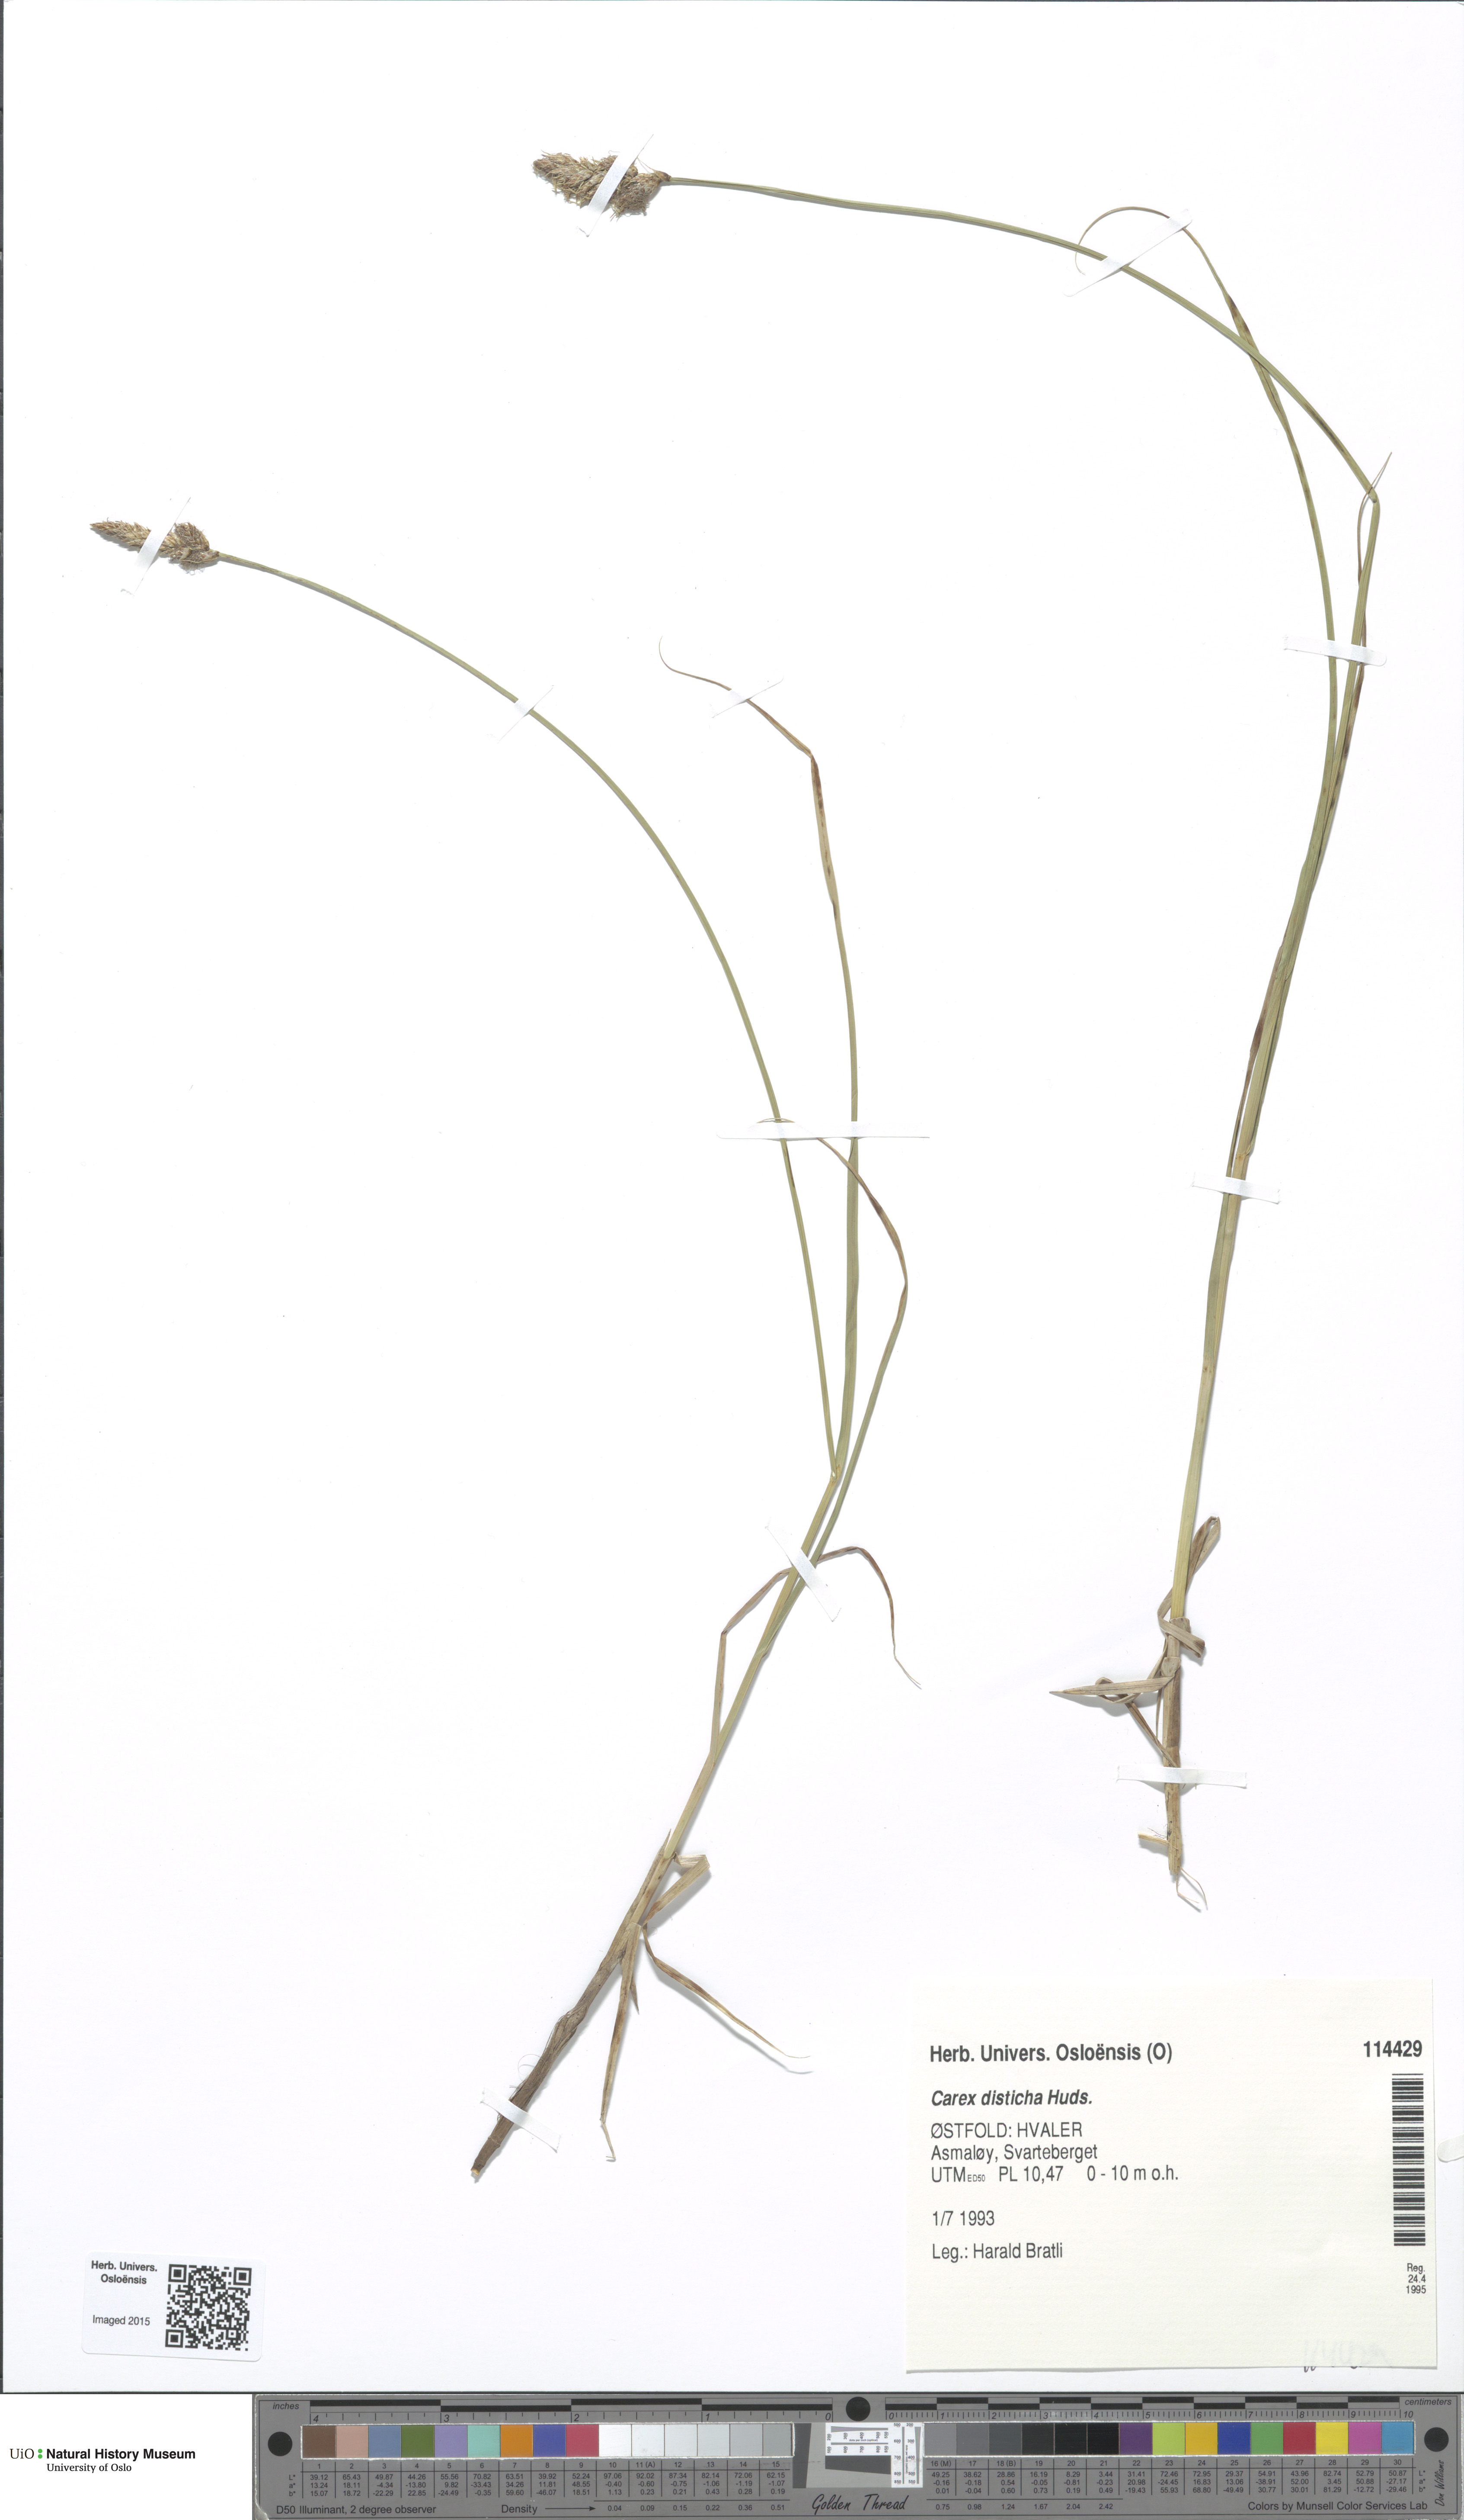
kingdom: Plantae
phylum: Tracheophyta
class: Liliopsida
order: Poales
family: Cyperaceae
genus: Carex
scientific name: Carex disticha
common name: Brown sedge
